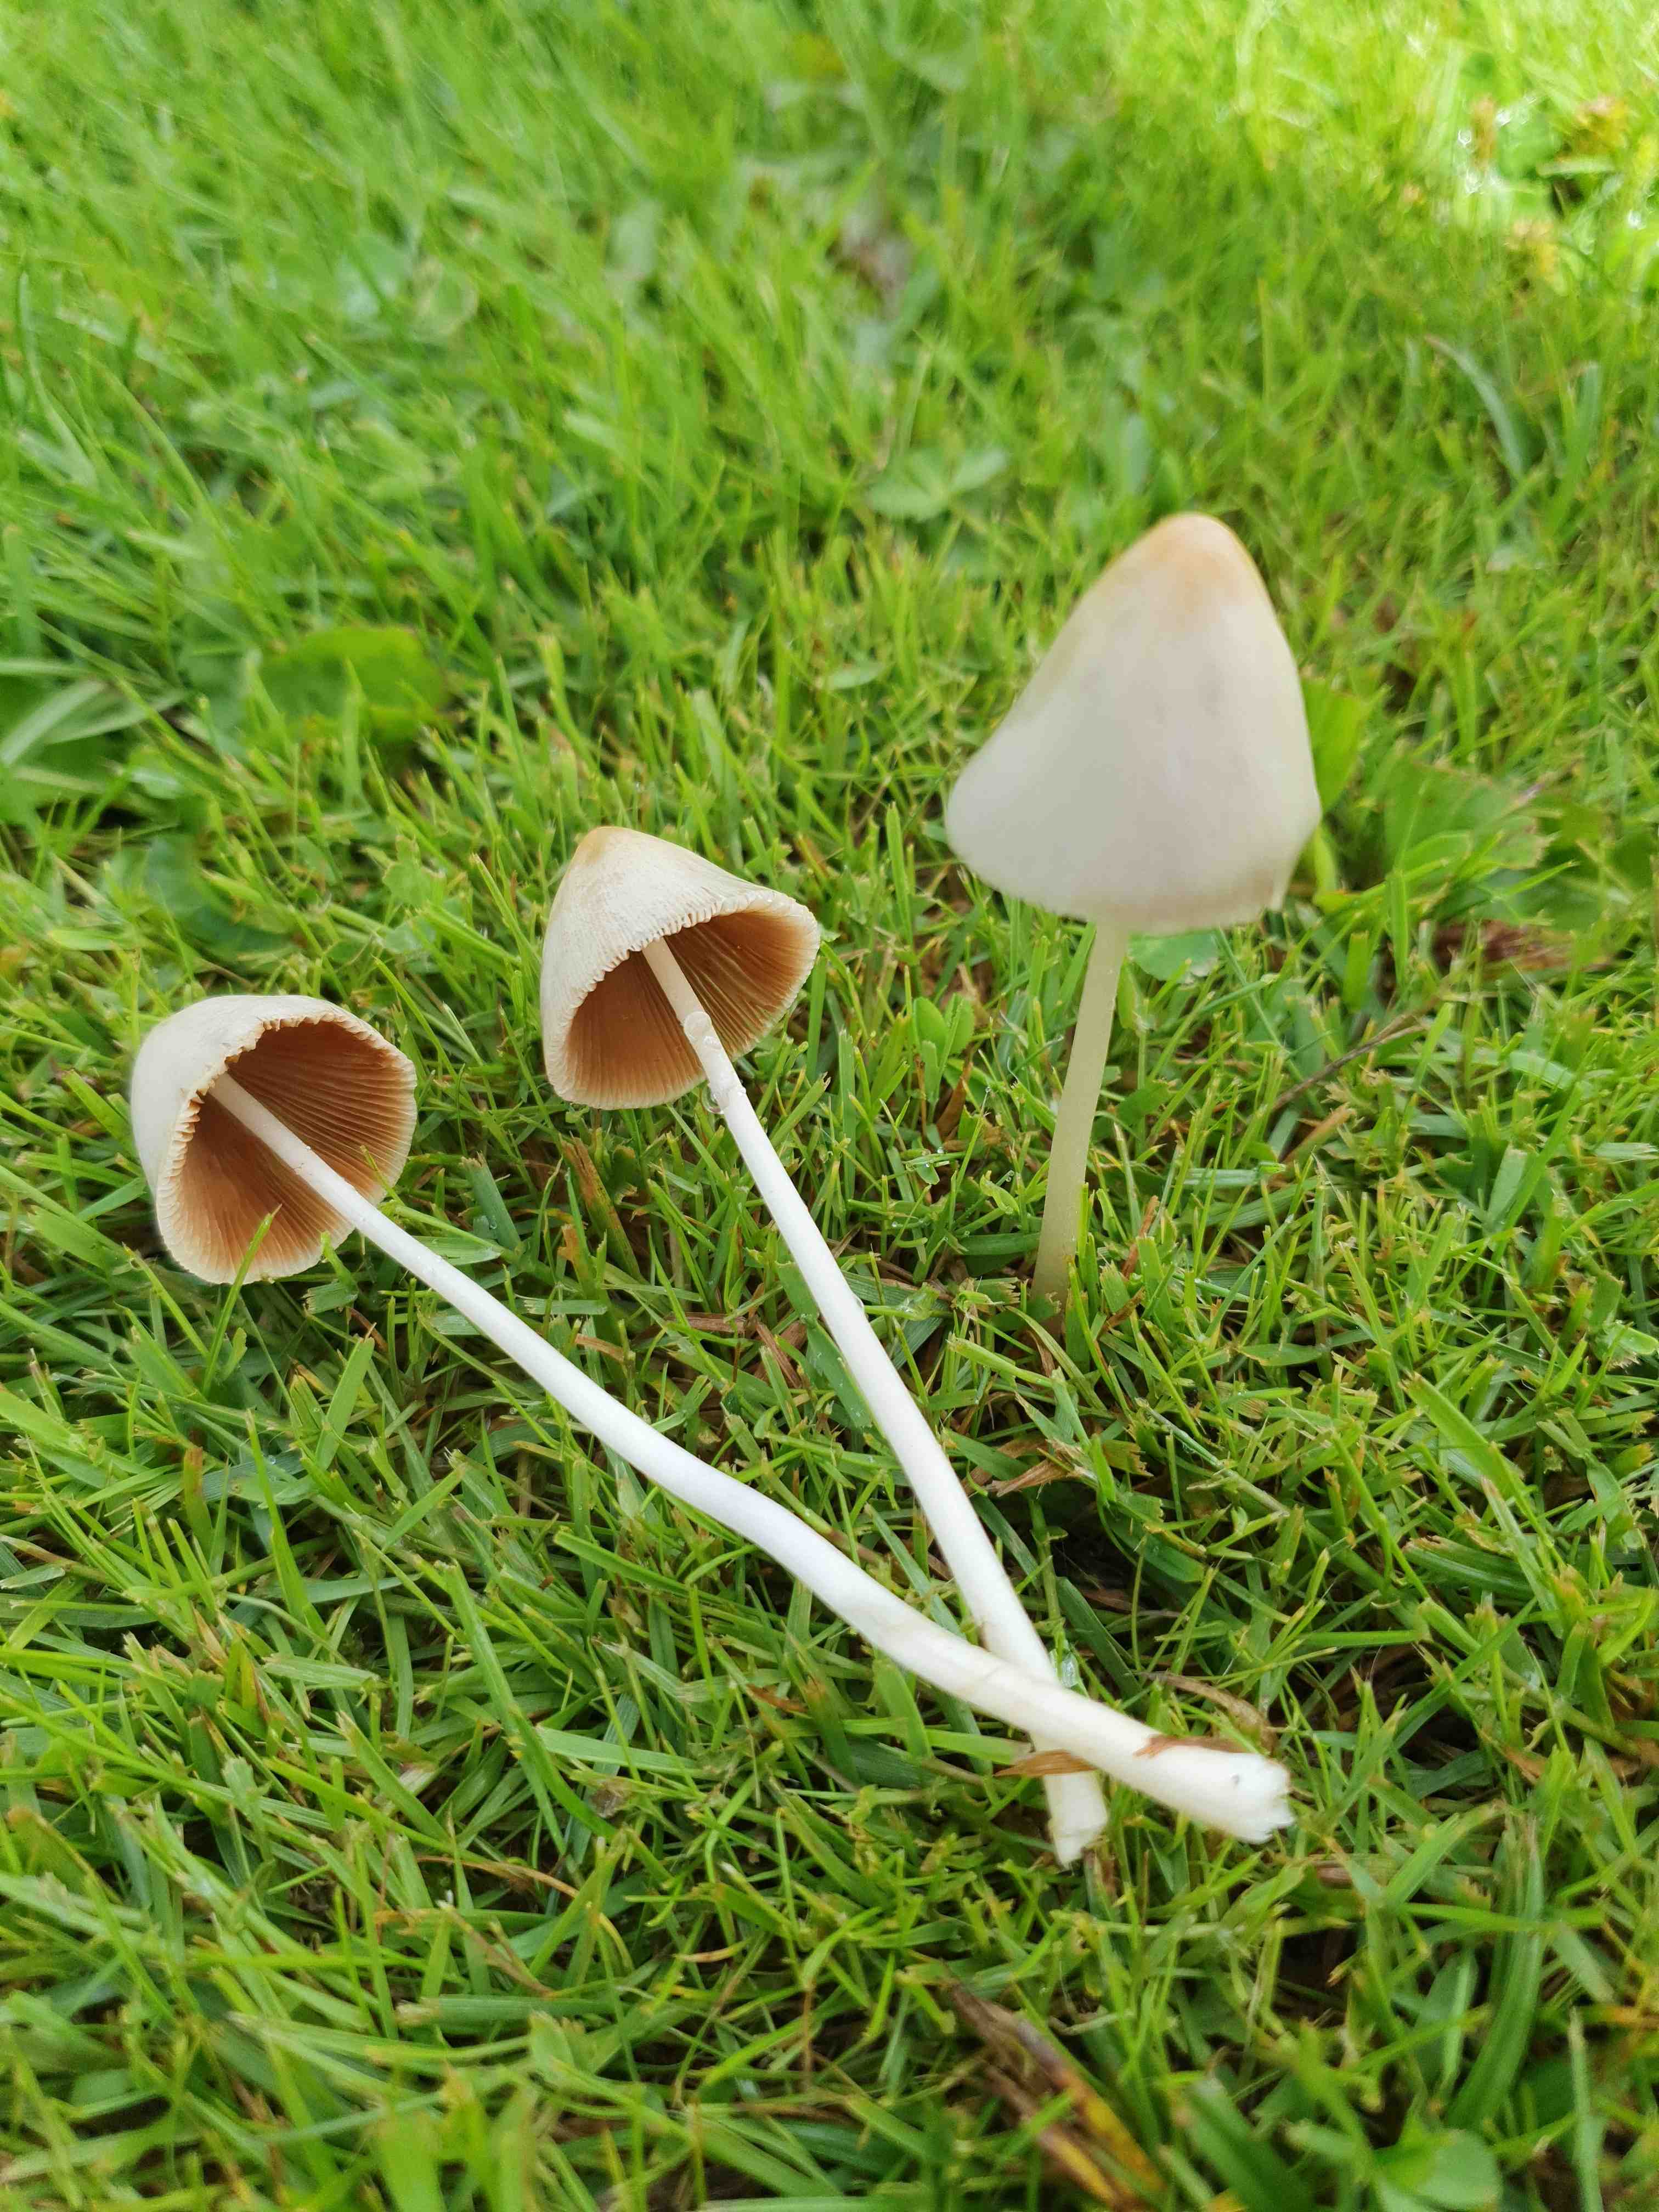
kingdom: Fungi
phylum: Basidiomycota
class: Agaricomycetes
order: Agaricales
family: Bolbitiaceae
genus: Conocybe
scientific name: Conocybe apala
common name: mælkehvid keglehat
